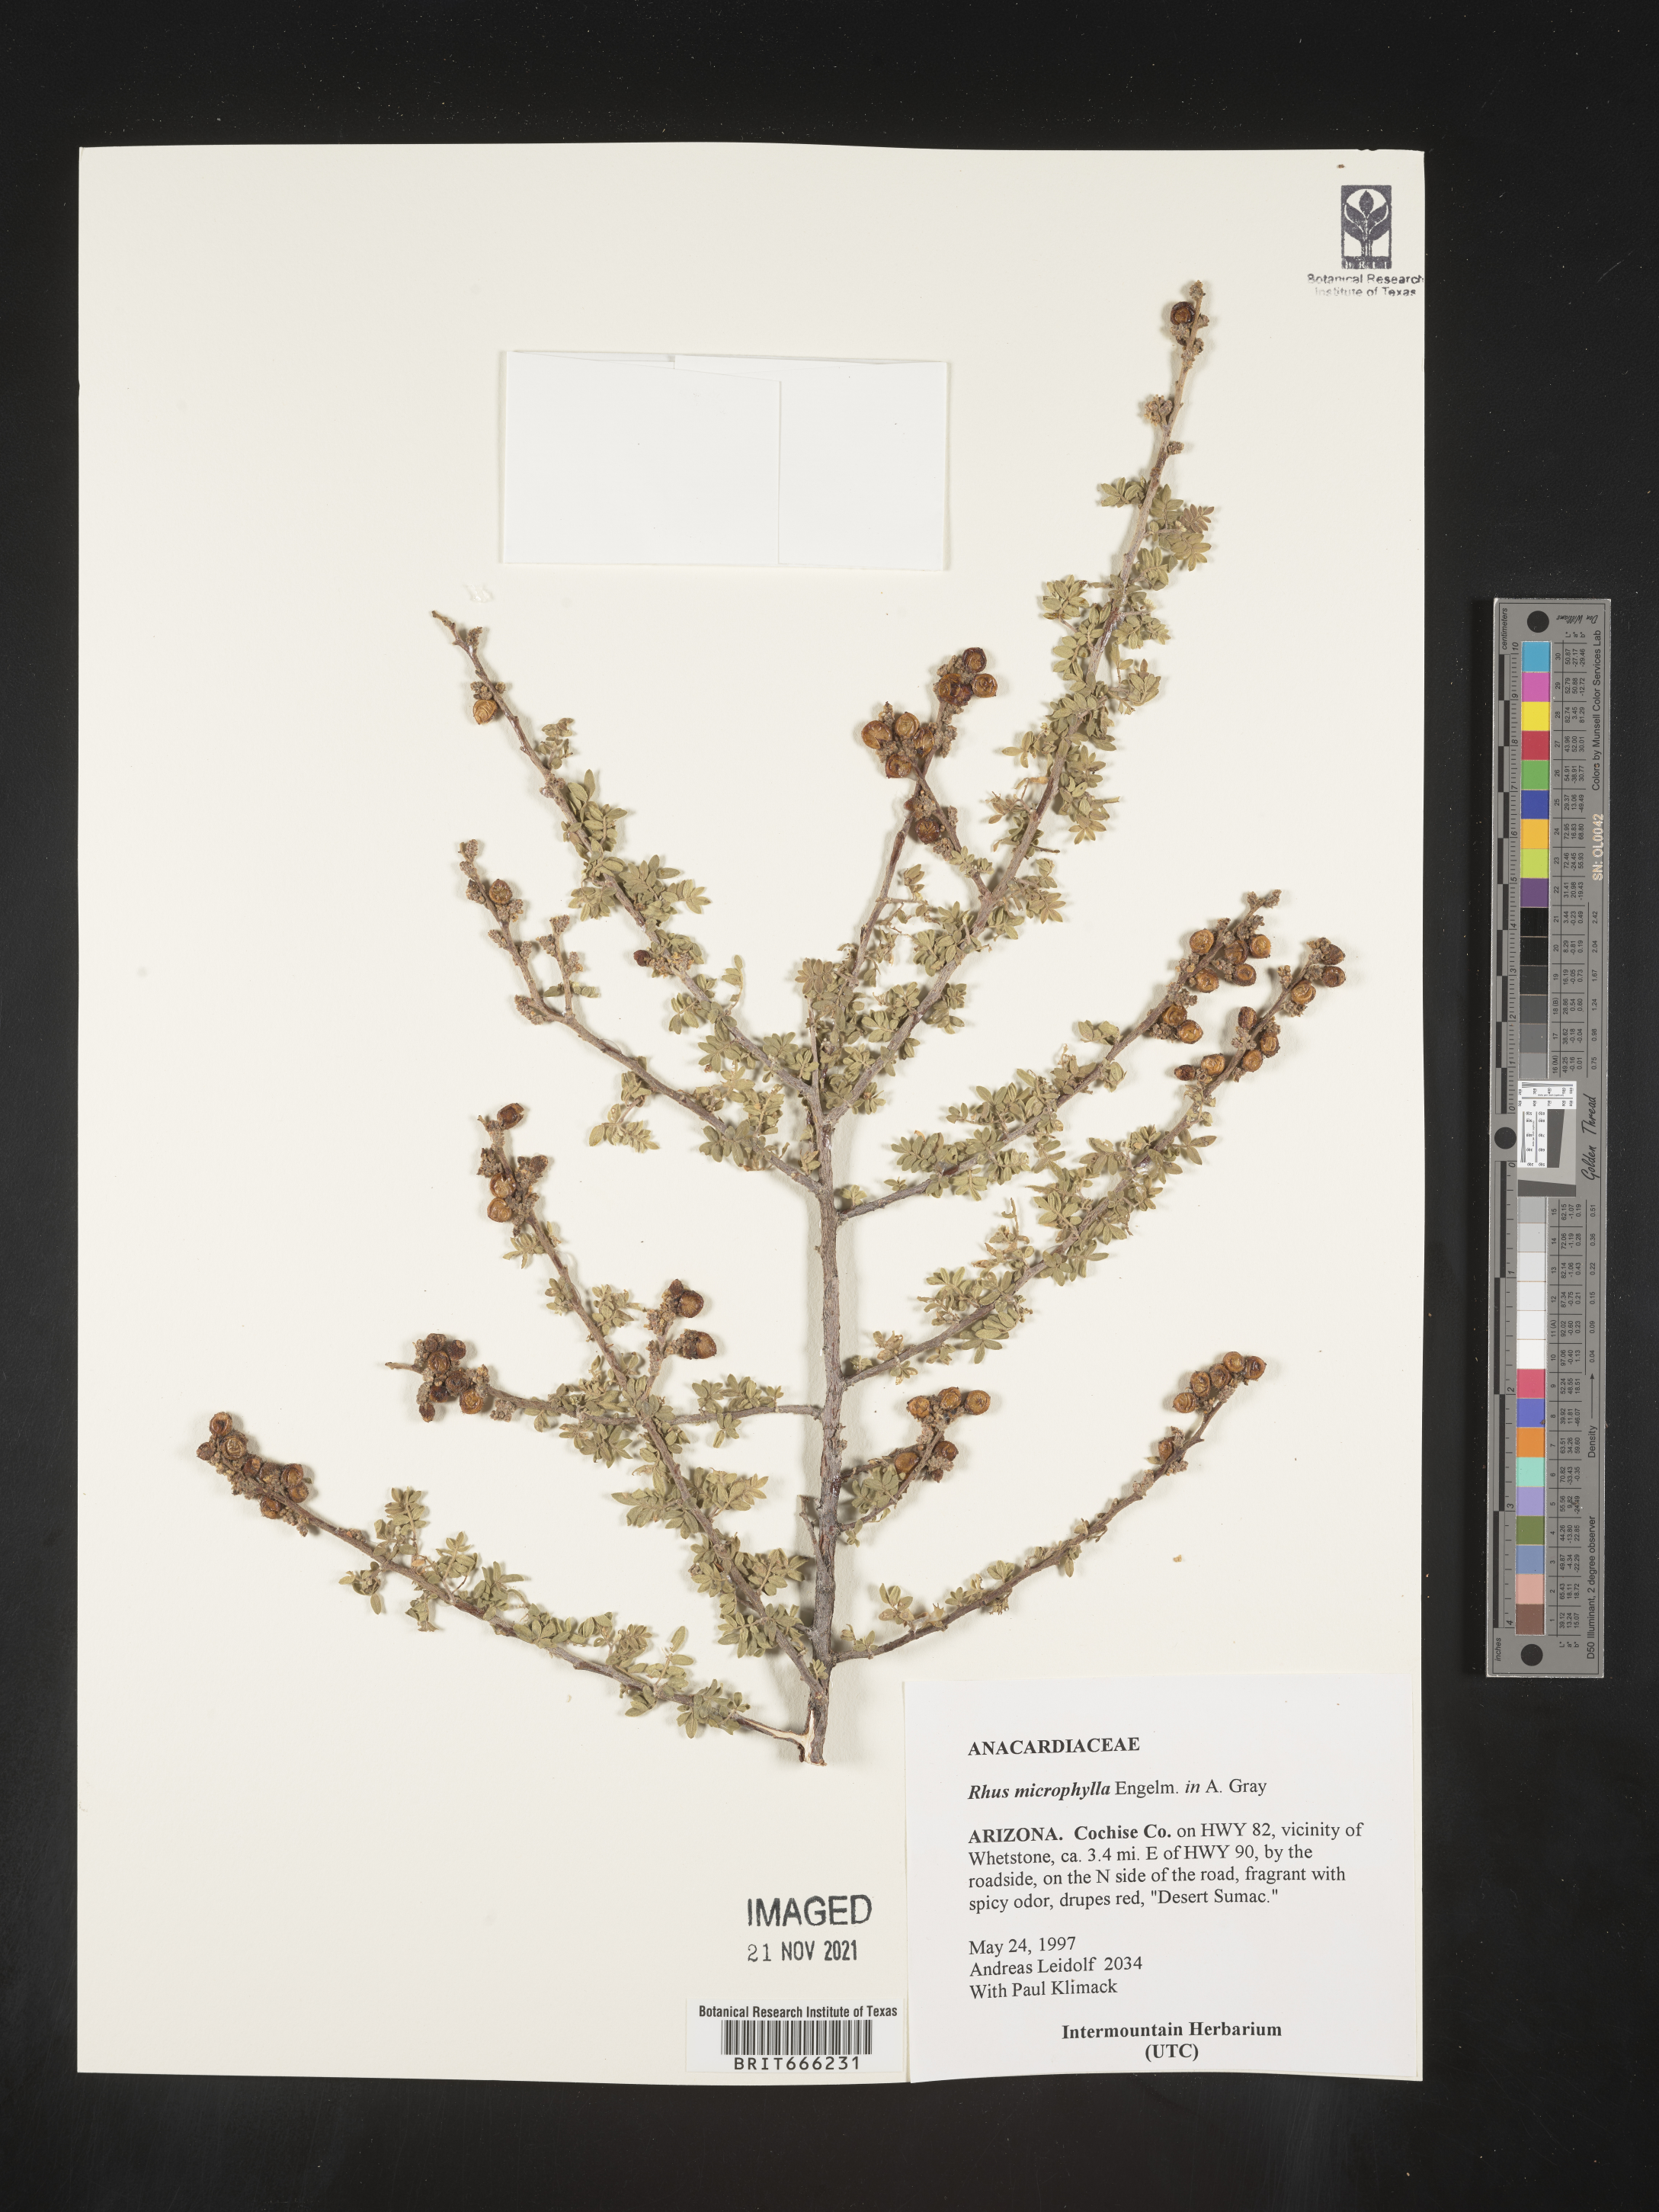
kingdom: Plantae
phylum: Tracheophyta
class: Magnoliopsida
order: Sapindales
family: Anacardiaceae
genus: Rhus
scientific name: Rhus
